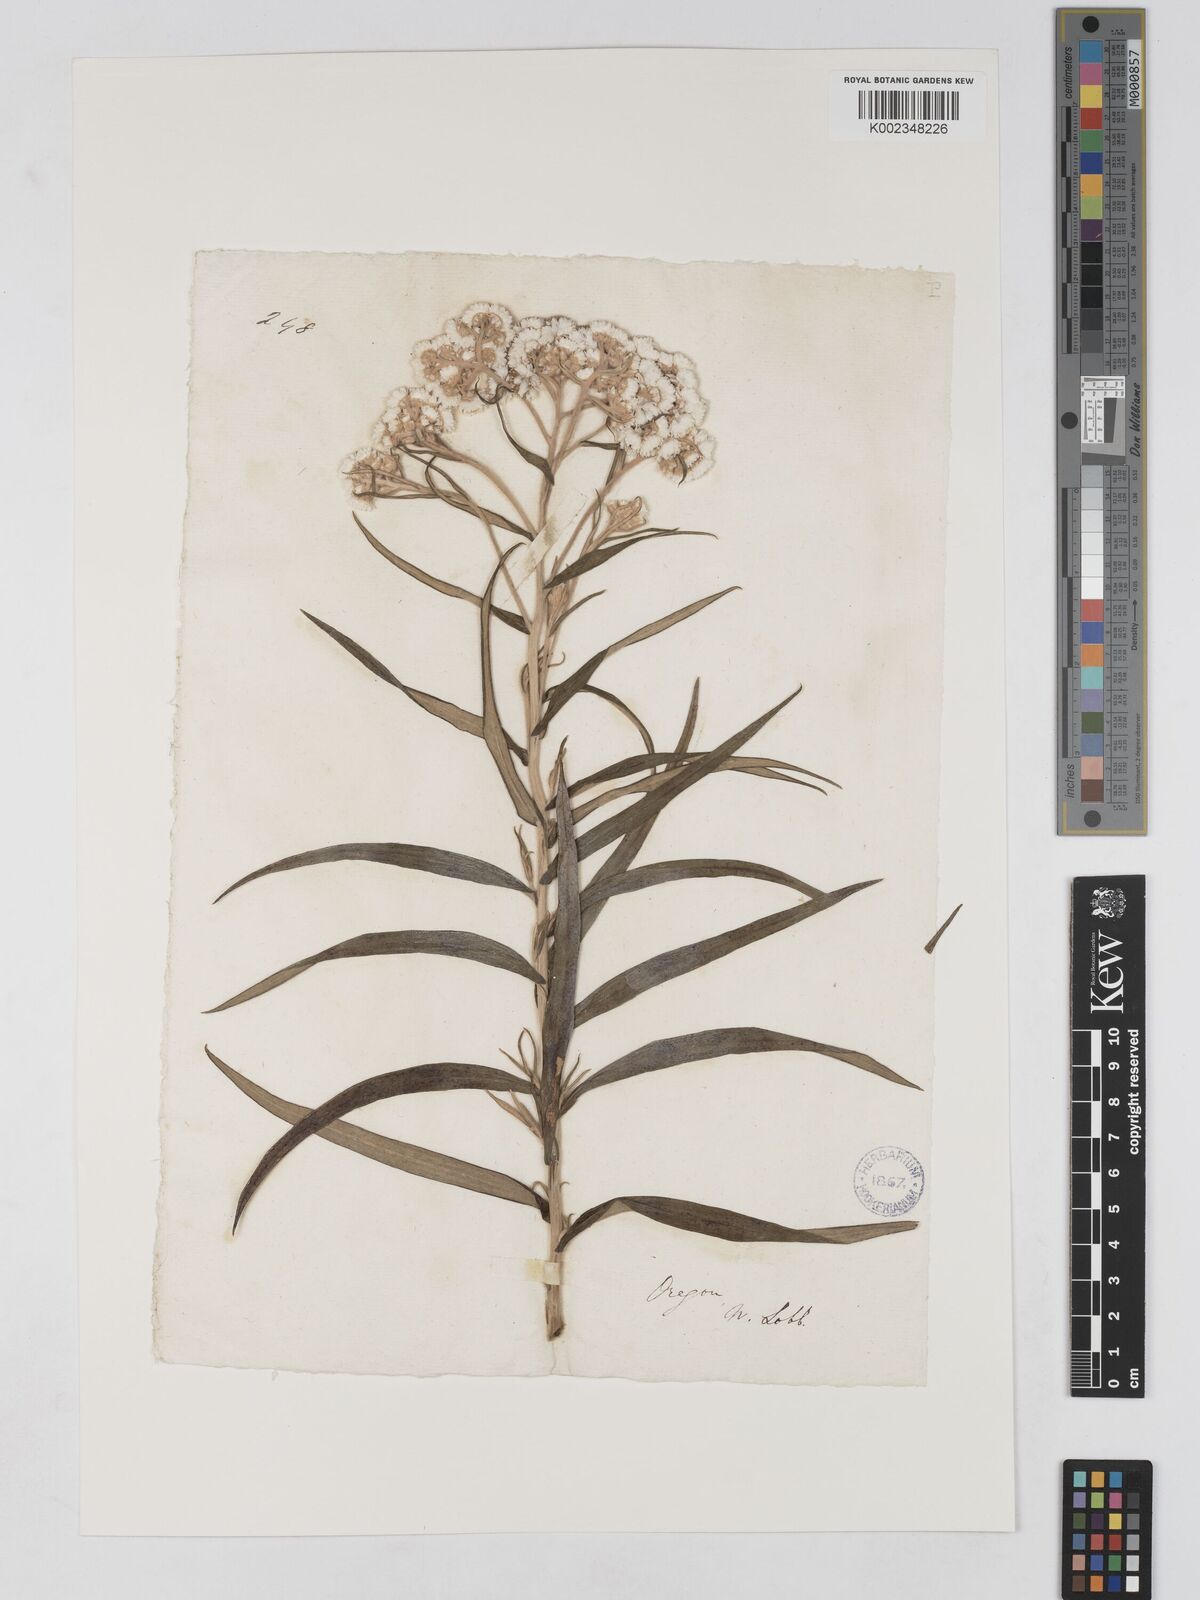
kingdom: Plantae
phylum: Tracheophyta
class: Magnoliopsida
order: Asterales
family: Asteraceae
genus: Anaphalis
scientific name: Anaphalis margaritacea
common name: Pearly everlasting
